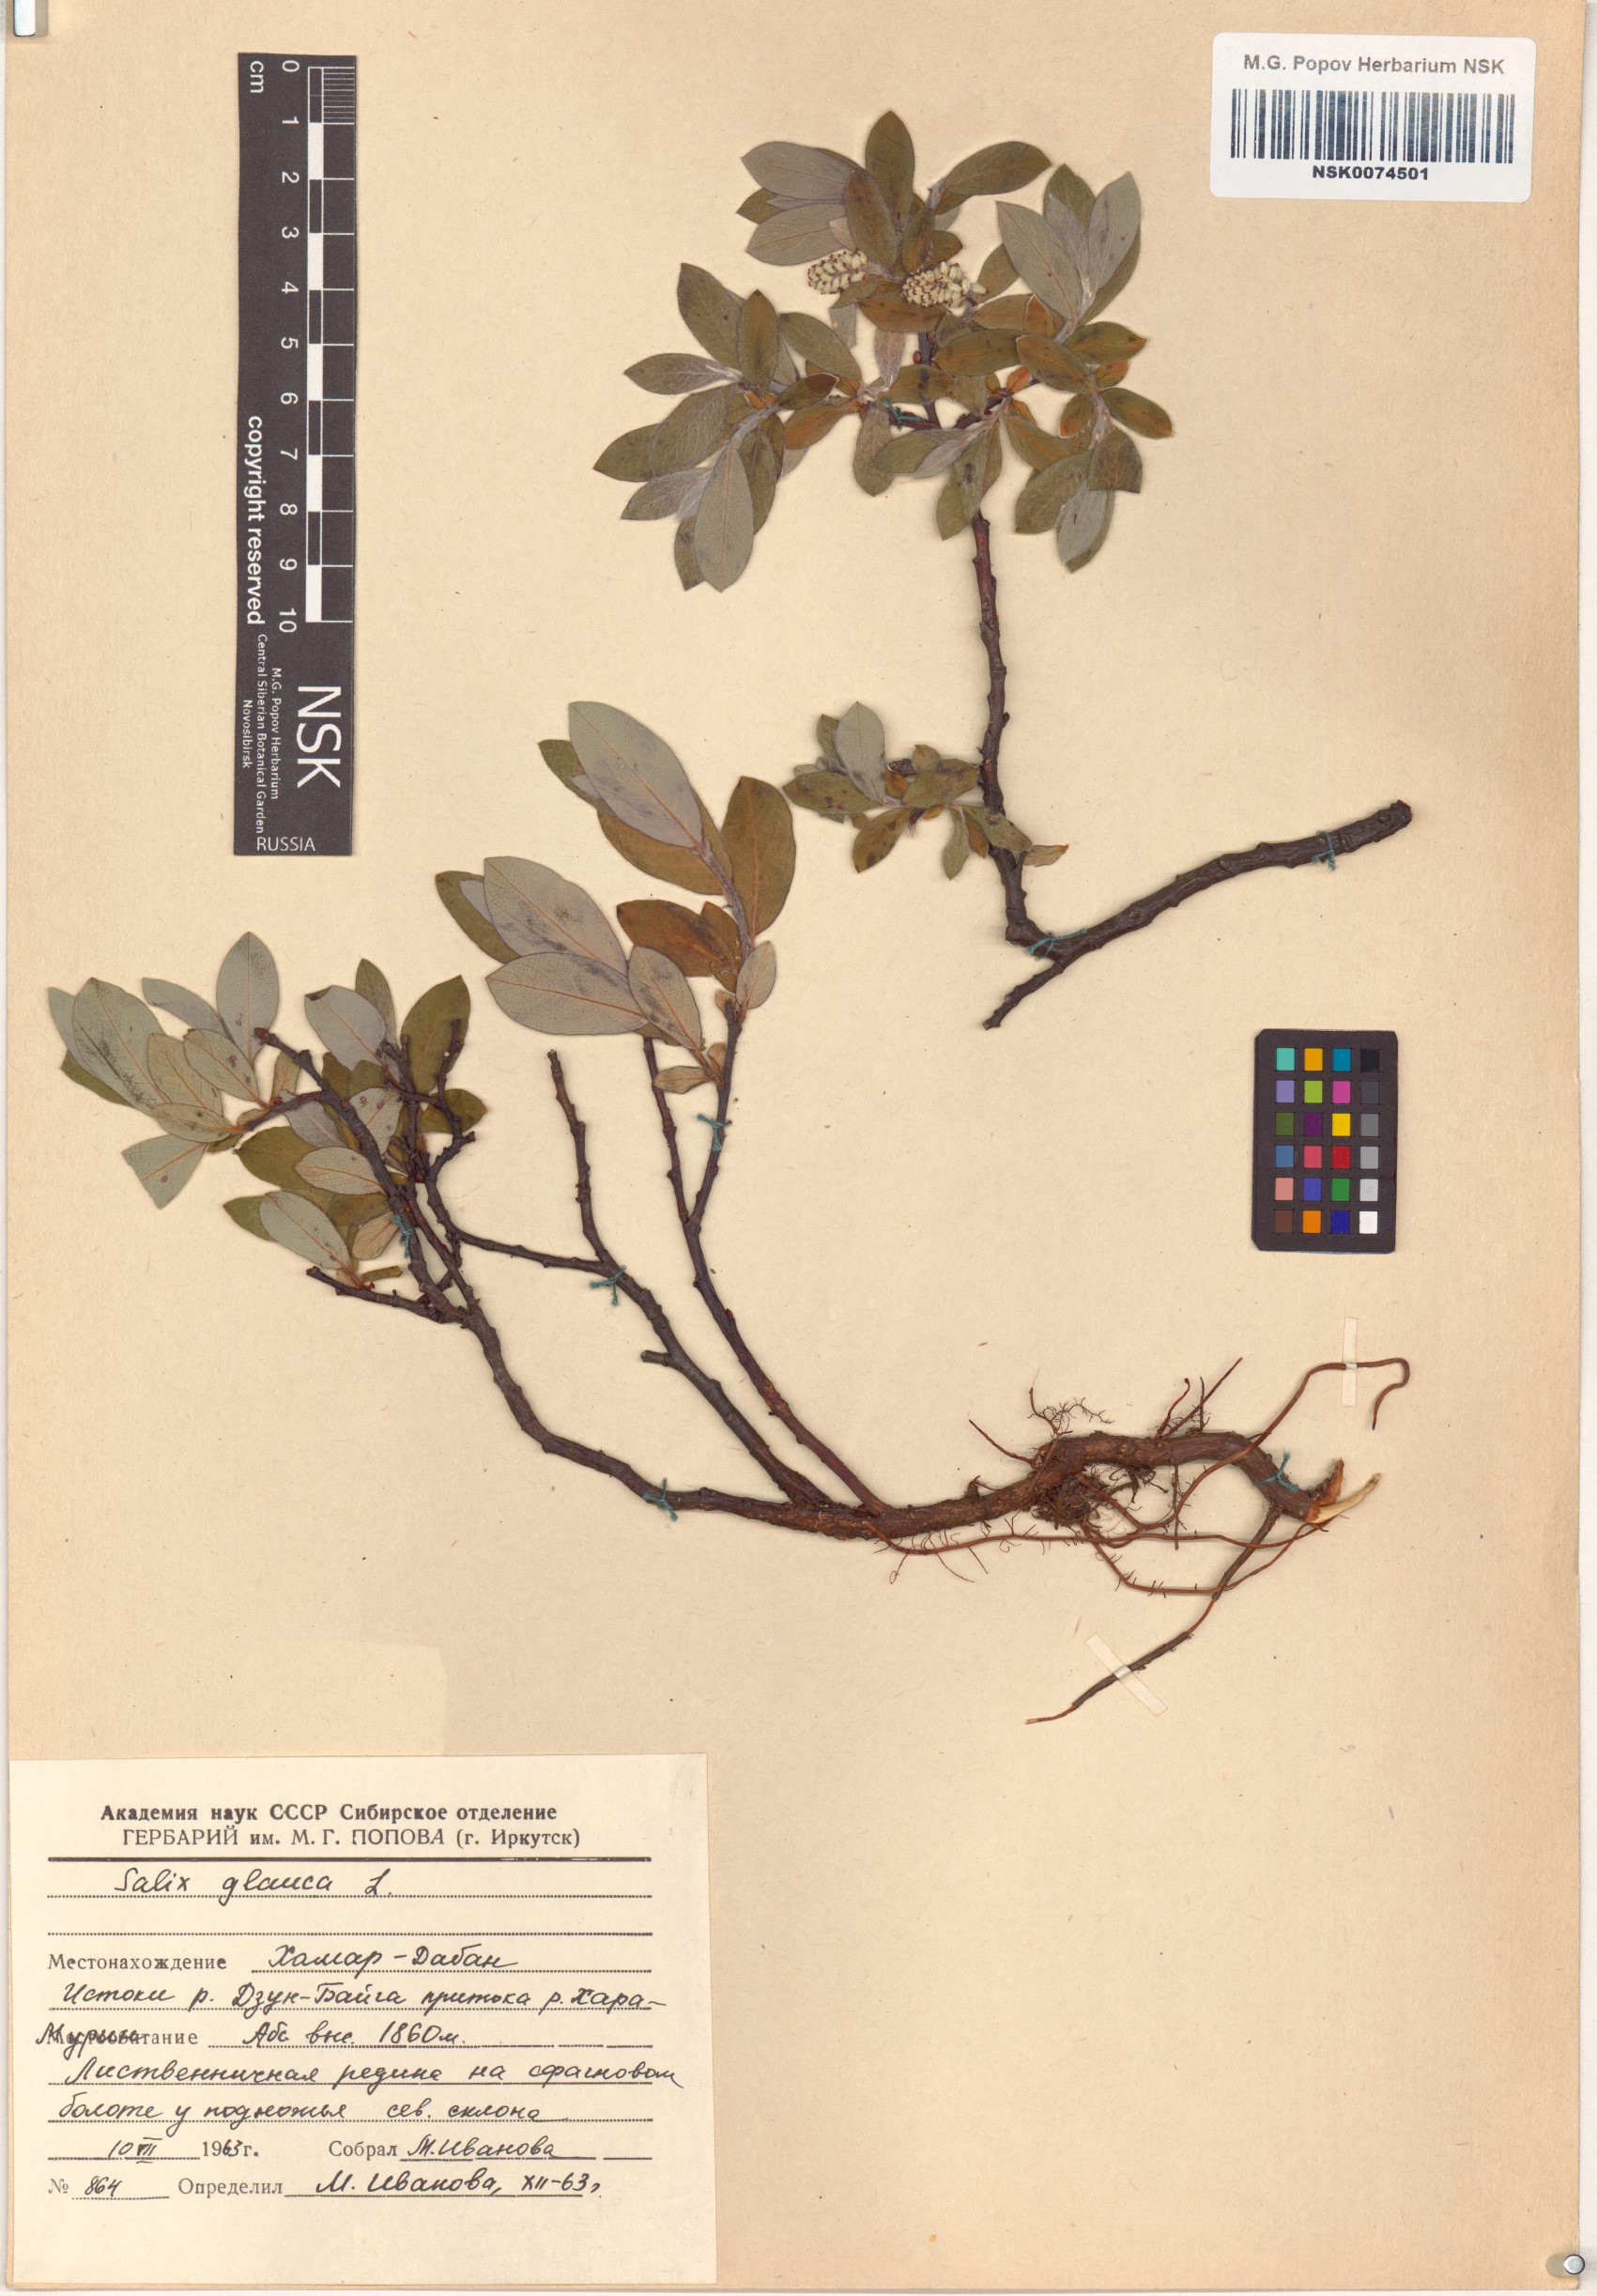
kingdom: Plantae
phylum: Tracheophyta
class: Magnoliopsida
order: Malpighiales
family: Salicaceae
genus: Salix
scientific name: Salix glauca
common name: Glaucous willow
